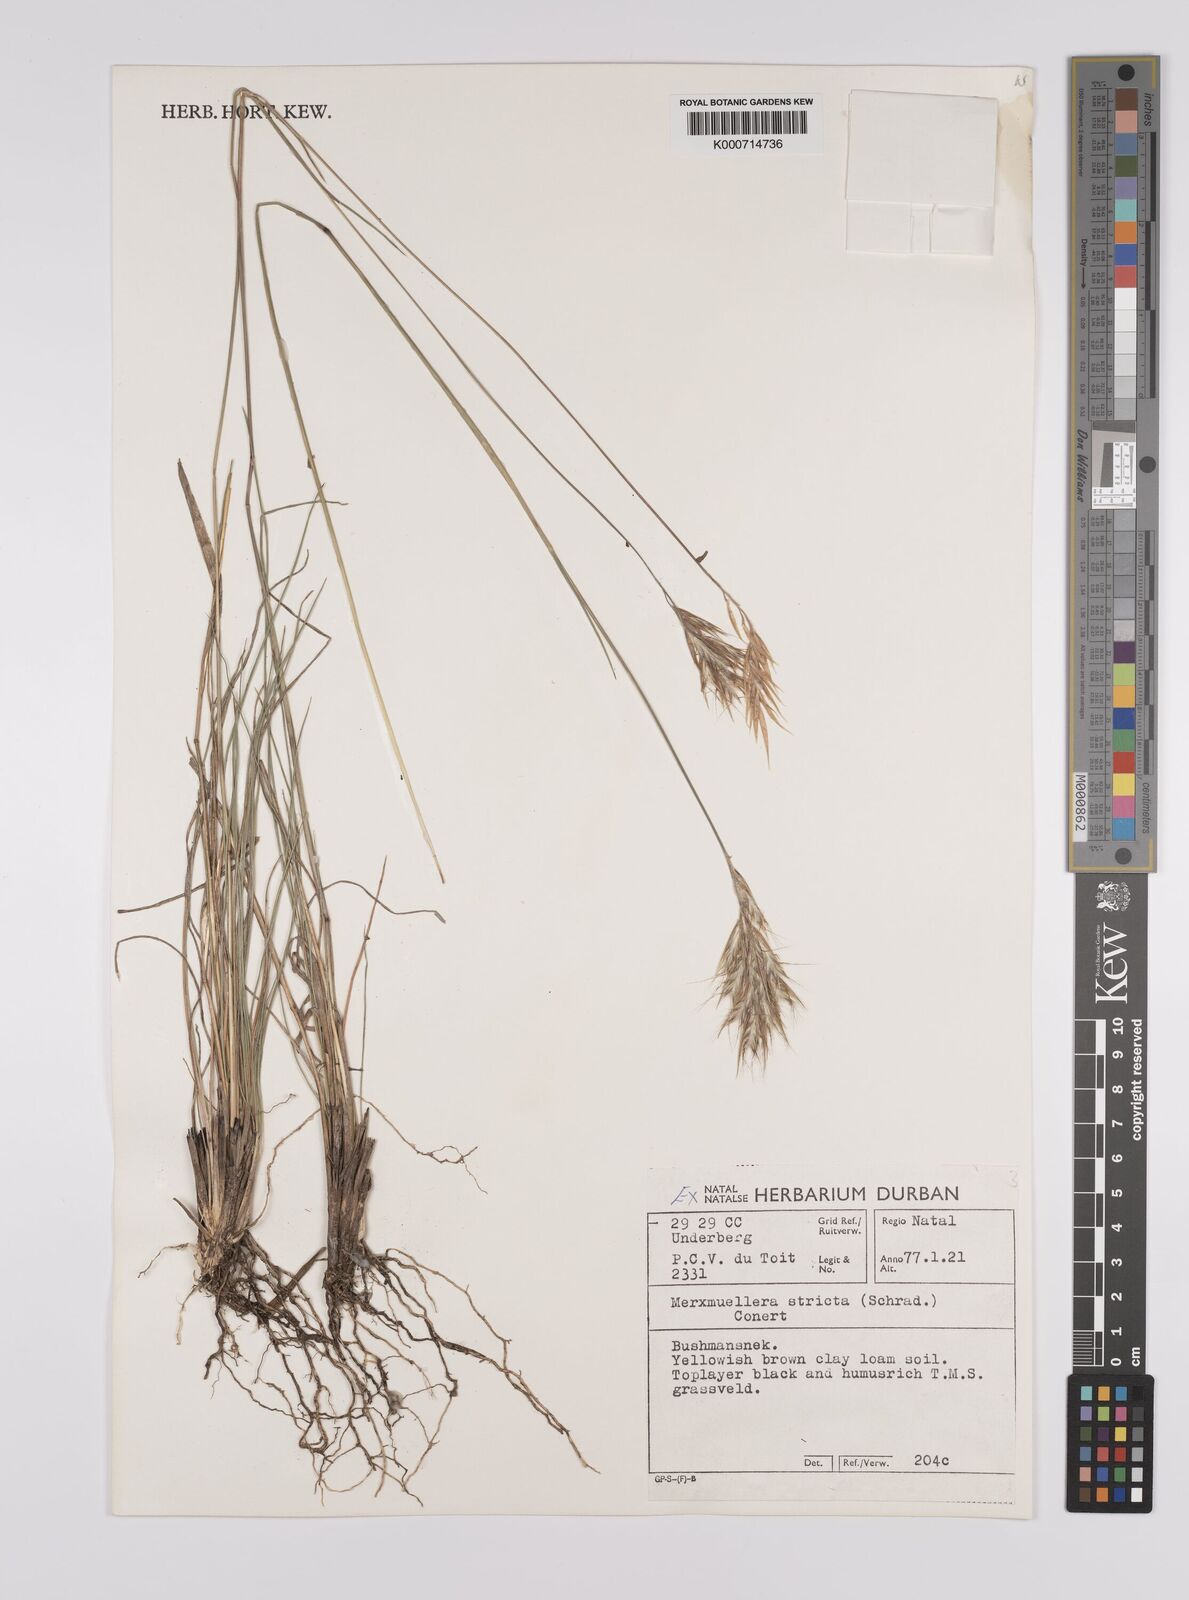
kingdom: Plantae
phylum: Tracheophyta
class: Liliopsida
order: Poales
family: Poaceae
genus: Rytidosperma
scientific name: Rytidosperma
